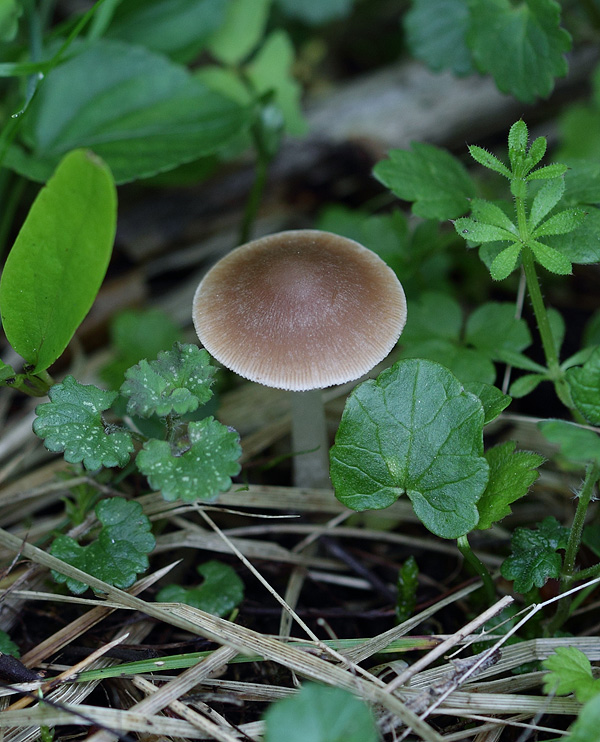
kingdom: Fungi
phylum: Basidiomycota
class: Agaricomycetes
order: Agaricales
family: Psathyrellaceae
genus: Psathyrella
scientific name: Psathyrella spadiceogrisea
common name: gråbrun mørkhat
